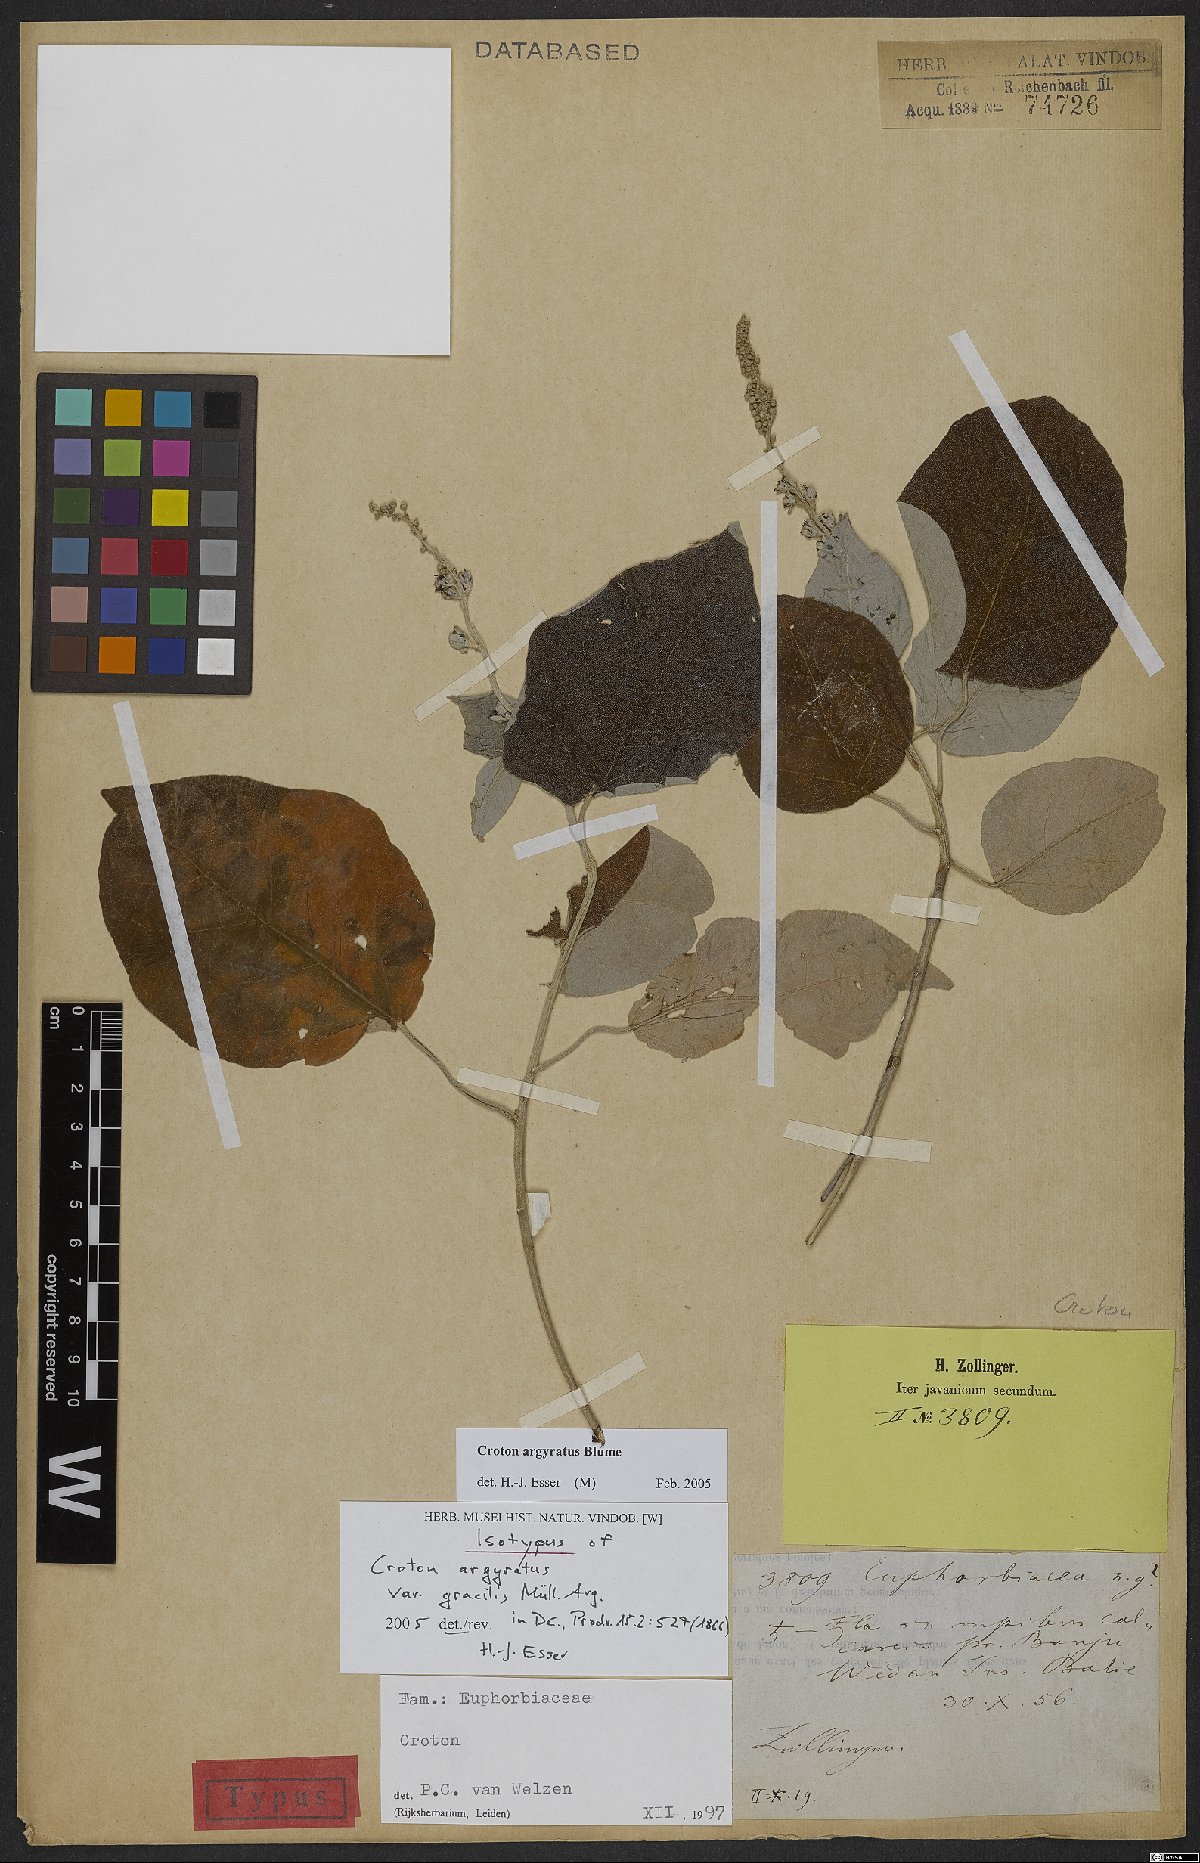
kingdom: Plantae
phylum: Tracheophyta
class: Magnoliopsida
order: Malpighiales
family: Euphorbiaceae
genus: Croton
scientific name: Croton argyratus
